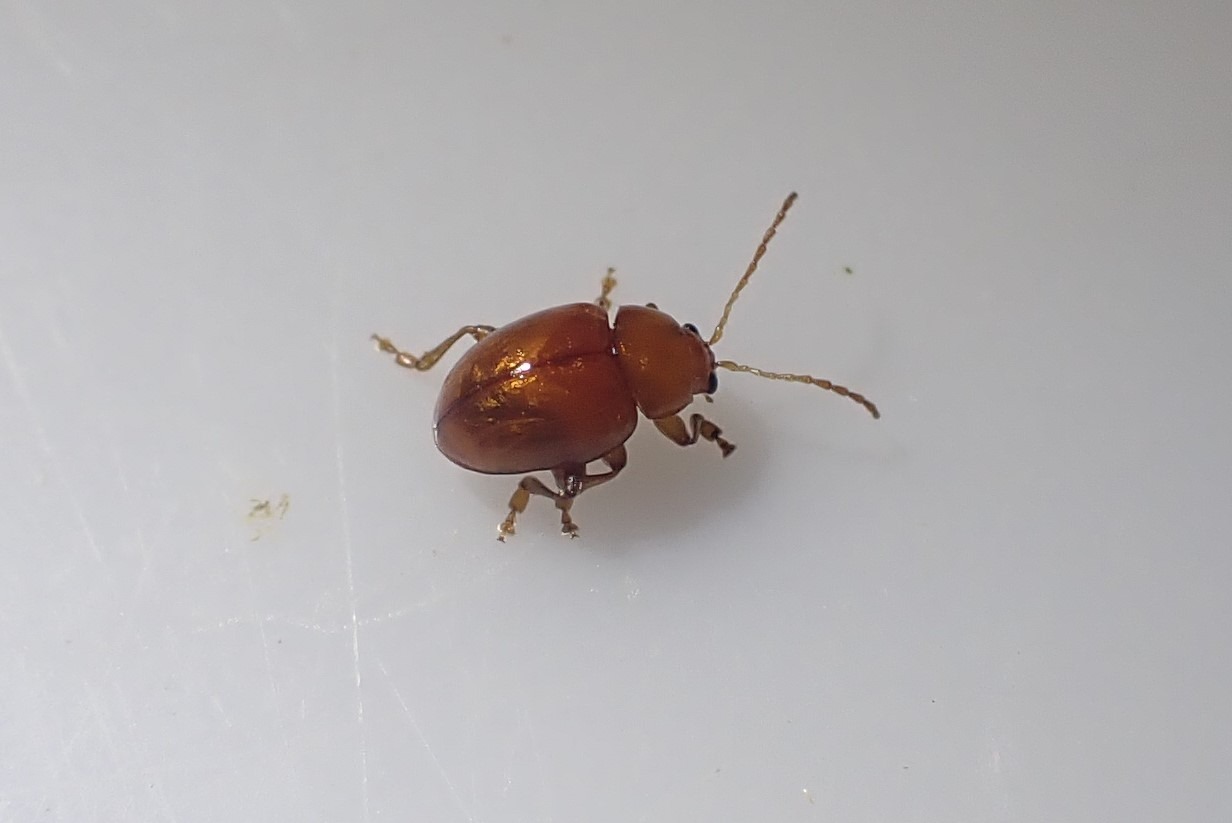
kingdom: Animalia
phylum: Arthropoda
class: Insecta
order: Coleoptera
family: Chrysomelidae
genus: Pistosia
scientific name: Pistosia testacea
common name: Tidselkuglebille
